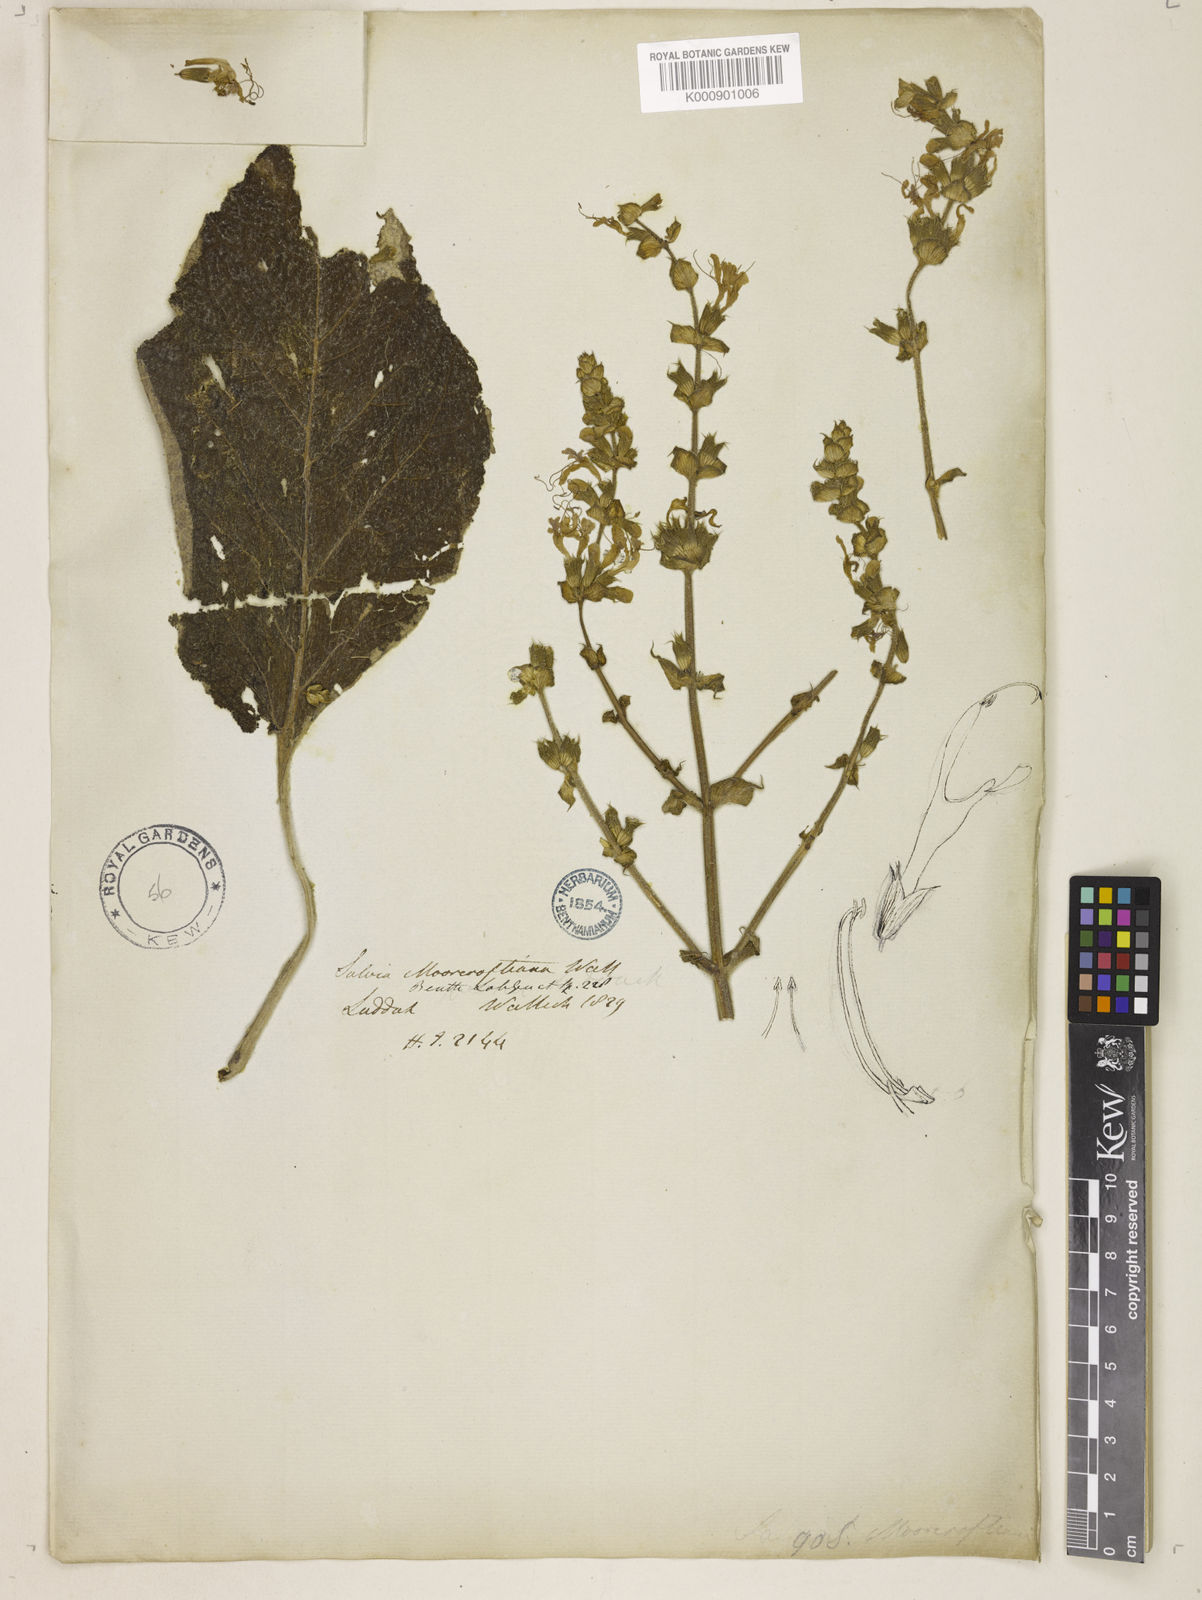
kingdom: Plantae
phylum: Tracheophyta
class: Magnoliopsida
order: Lamiales
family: Lamiaceae
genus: Salvia
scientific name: Salvia moorcroftiana
